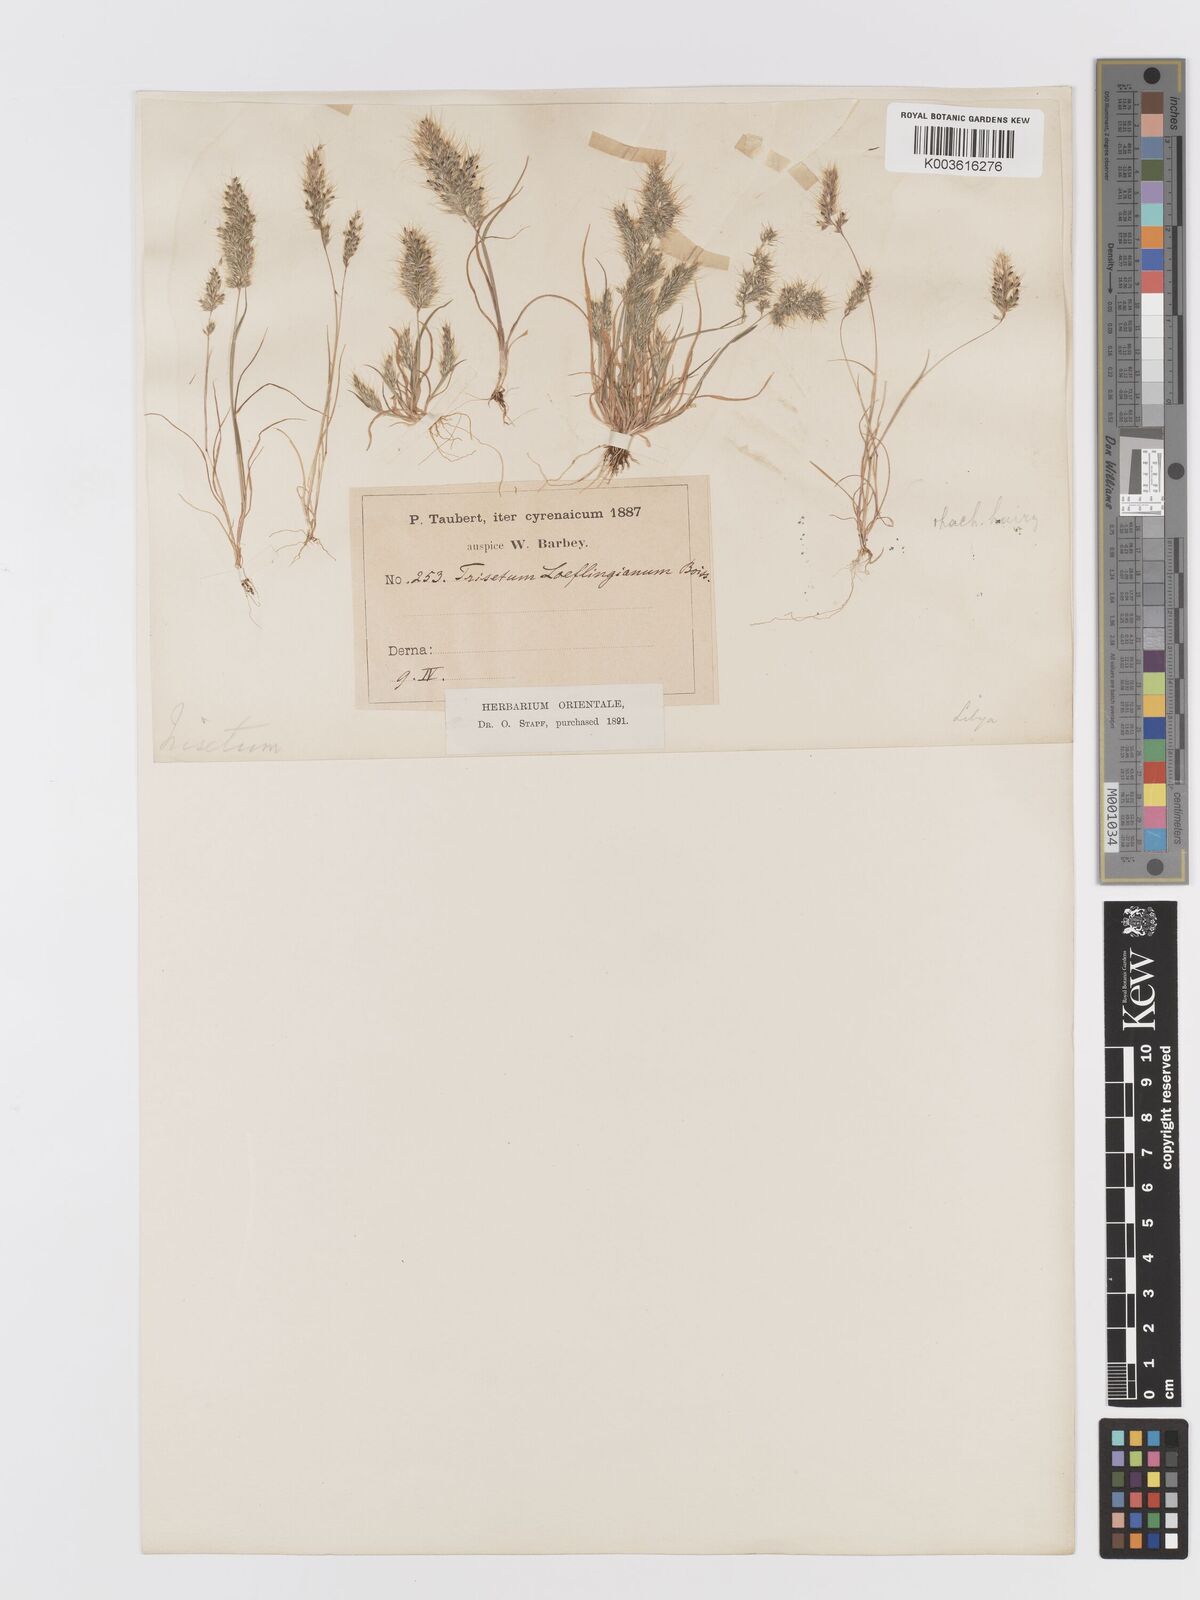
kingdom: Plantae
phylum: Tracheophyta
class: Liliopsida
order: Poales
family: Poaceae
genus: Trisetaria
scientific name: Trisetaria macrochaeta
